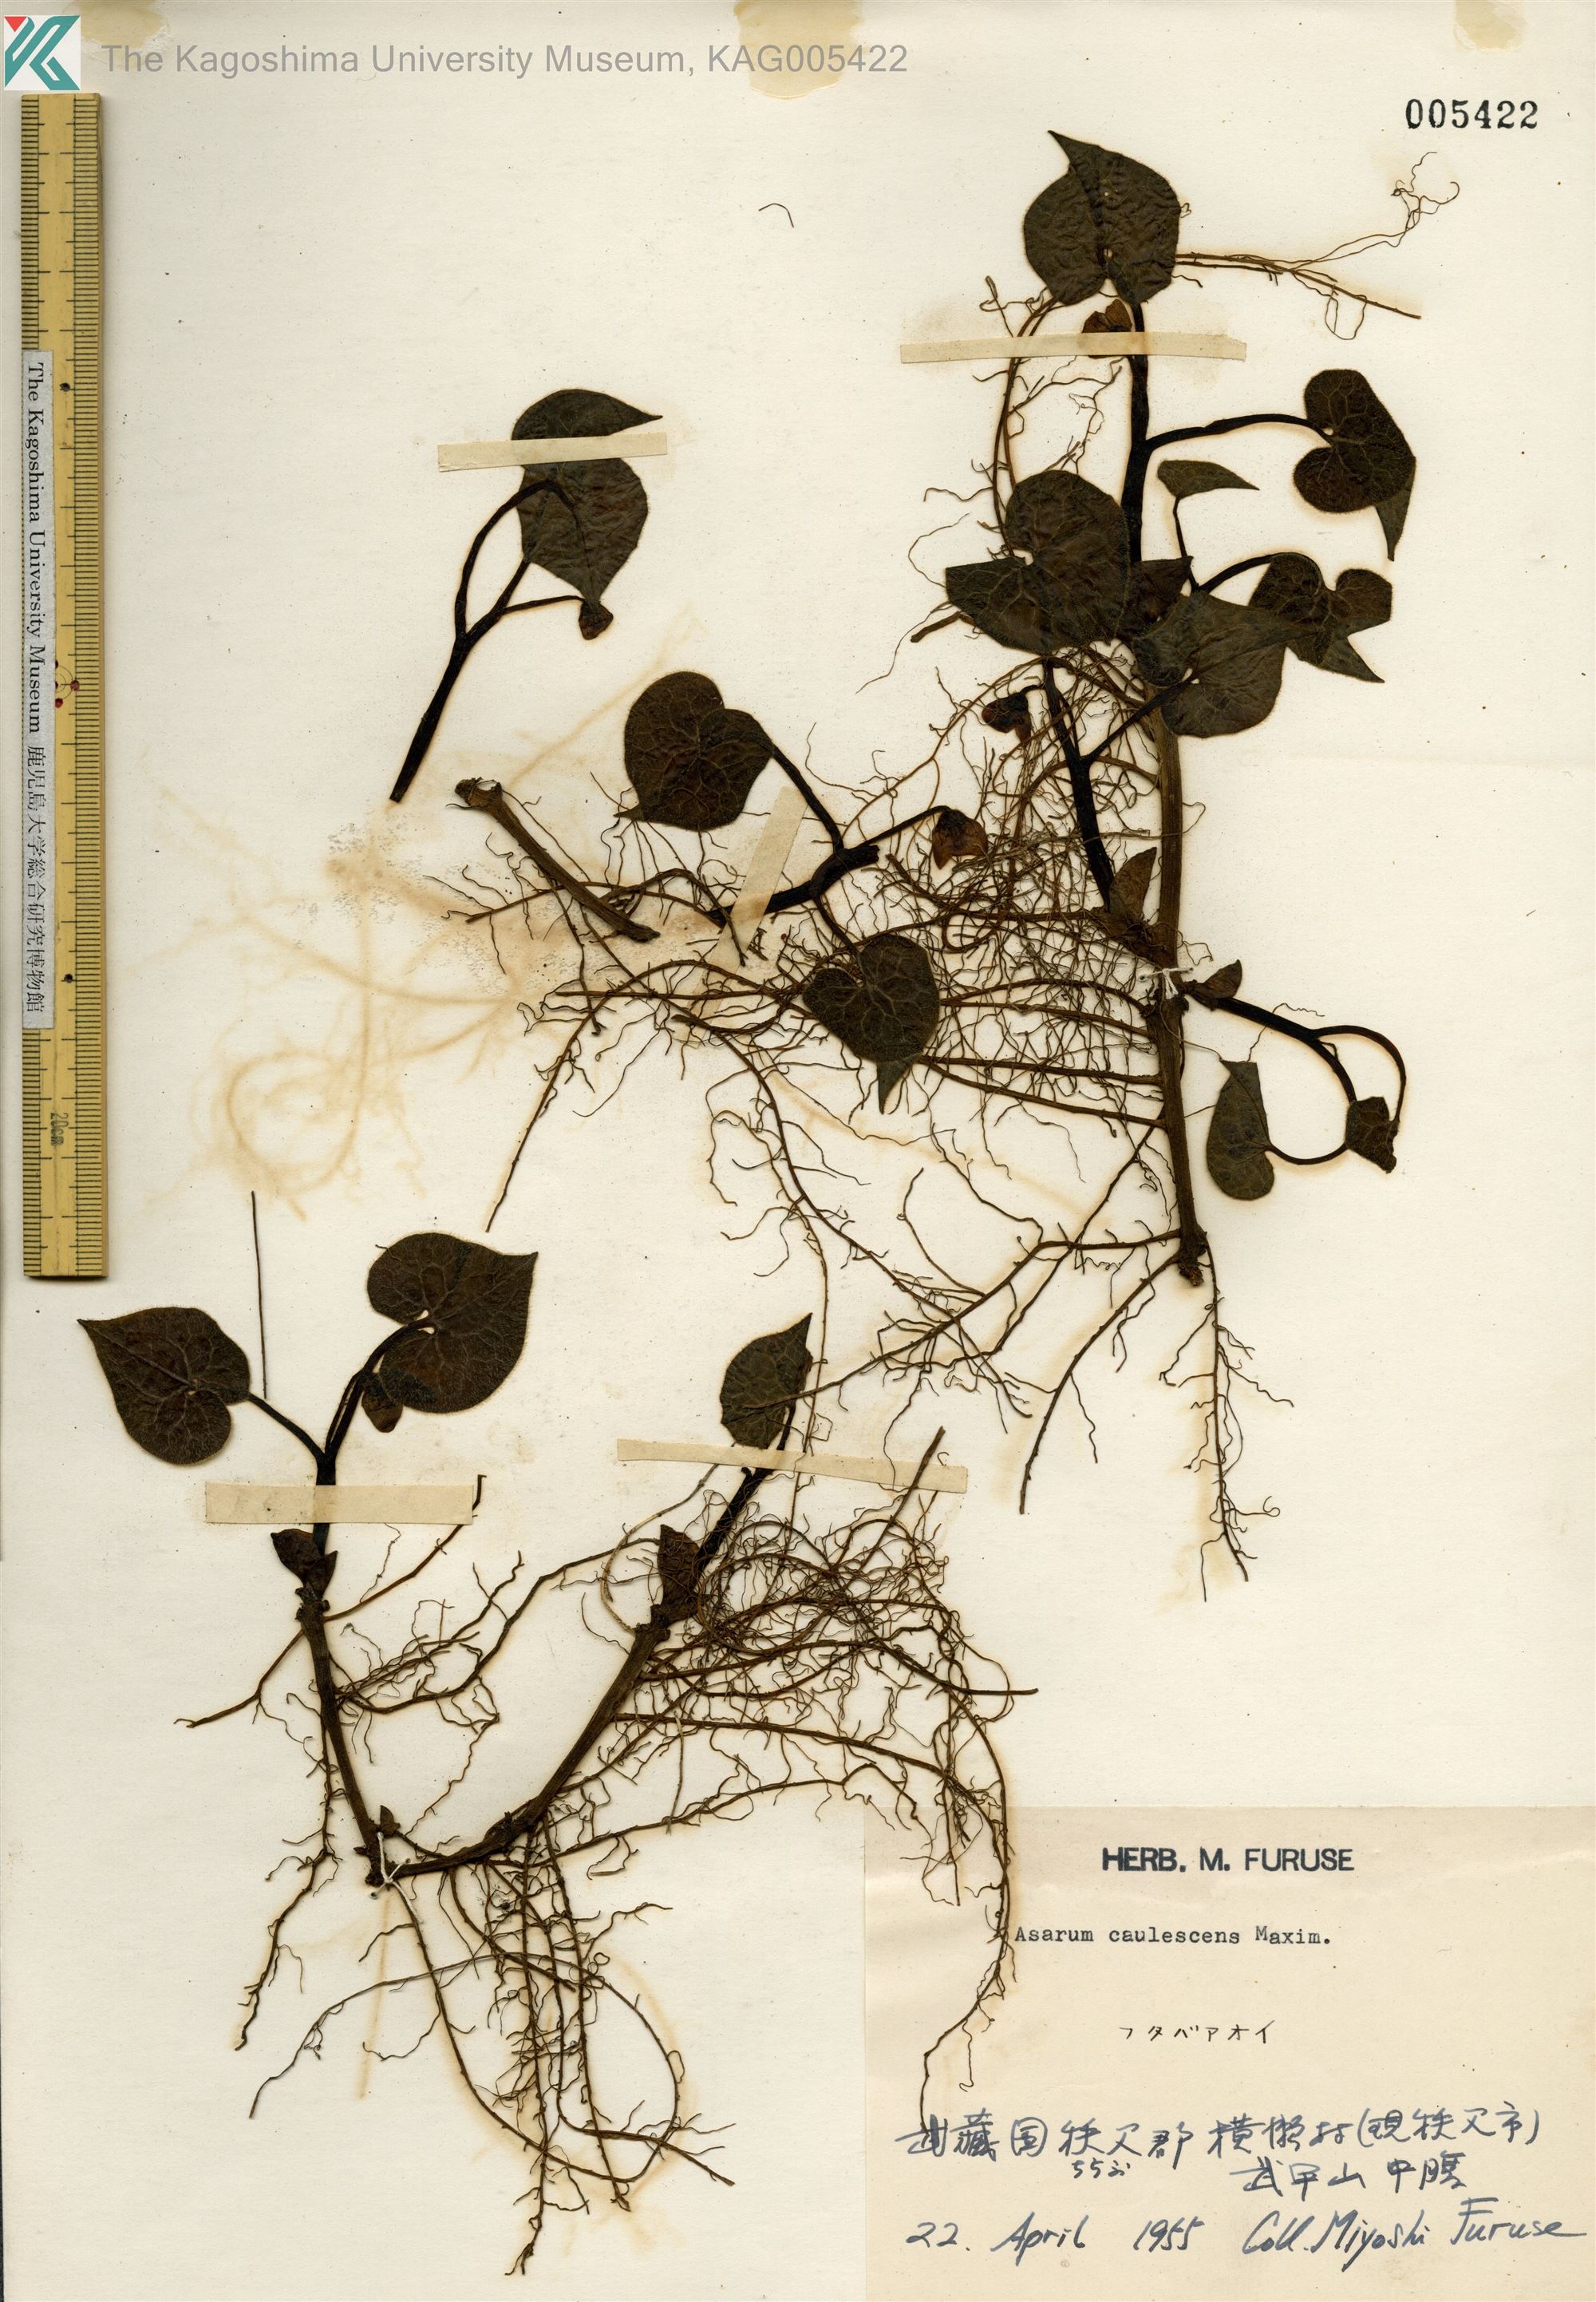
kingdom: Plantae
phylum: Tracheophyta
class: Magnoliopsida
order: Piperales
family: Aristolochiaceae
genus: Asarum
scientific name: Asarum caulescens
